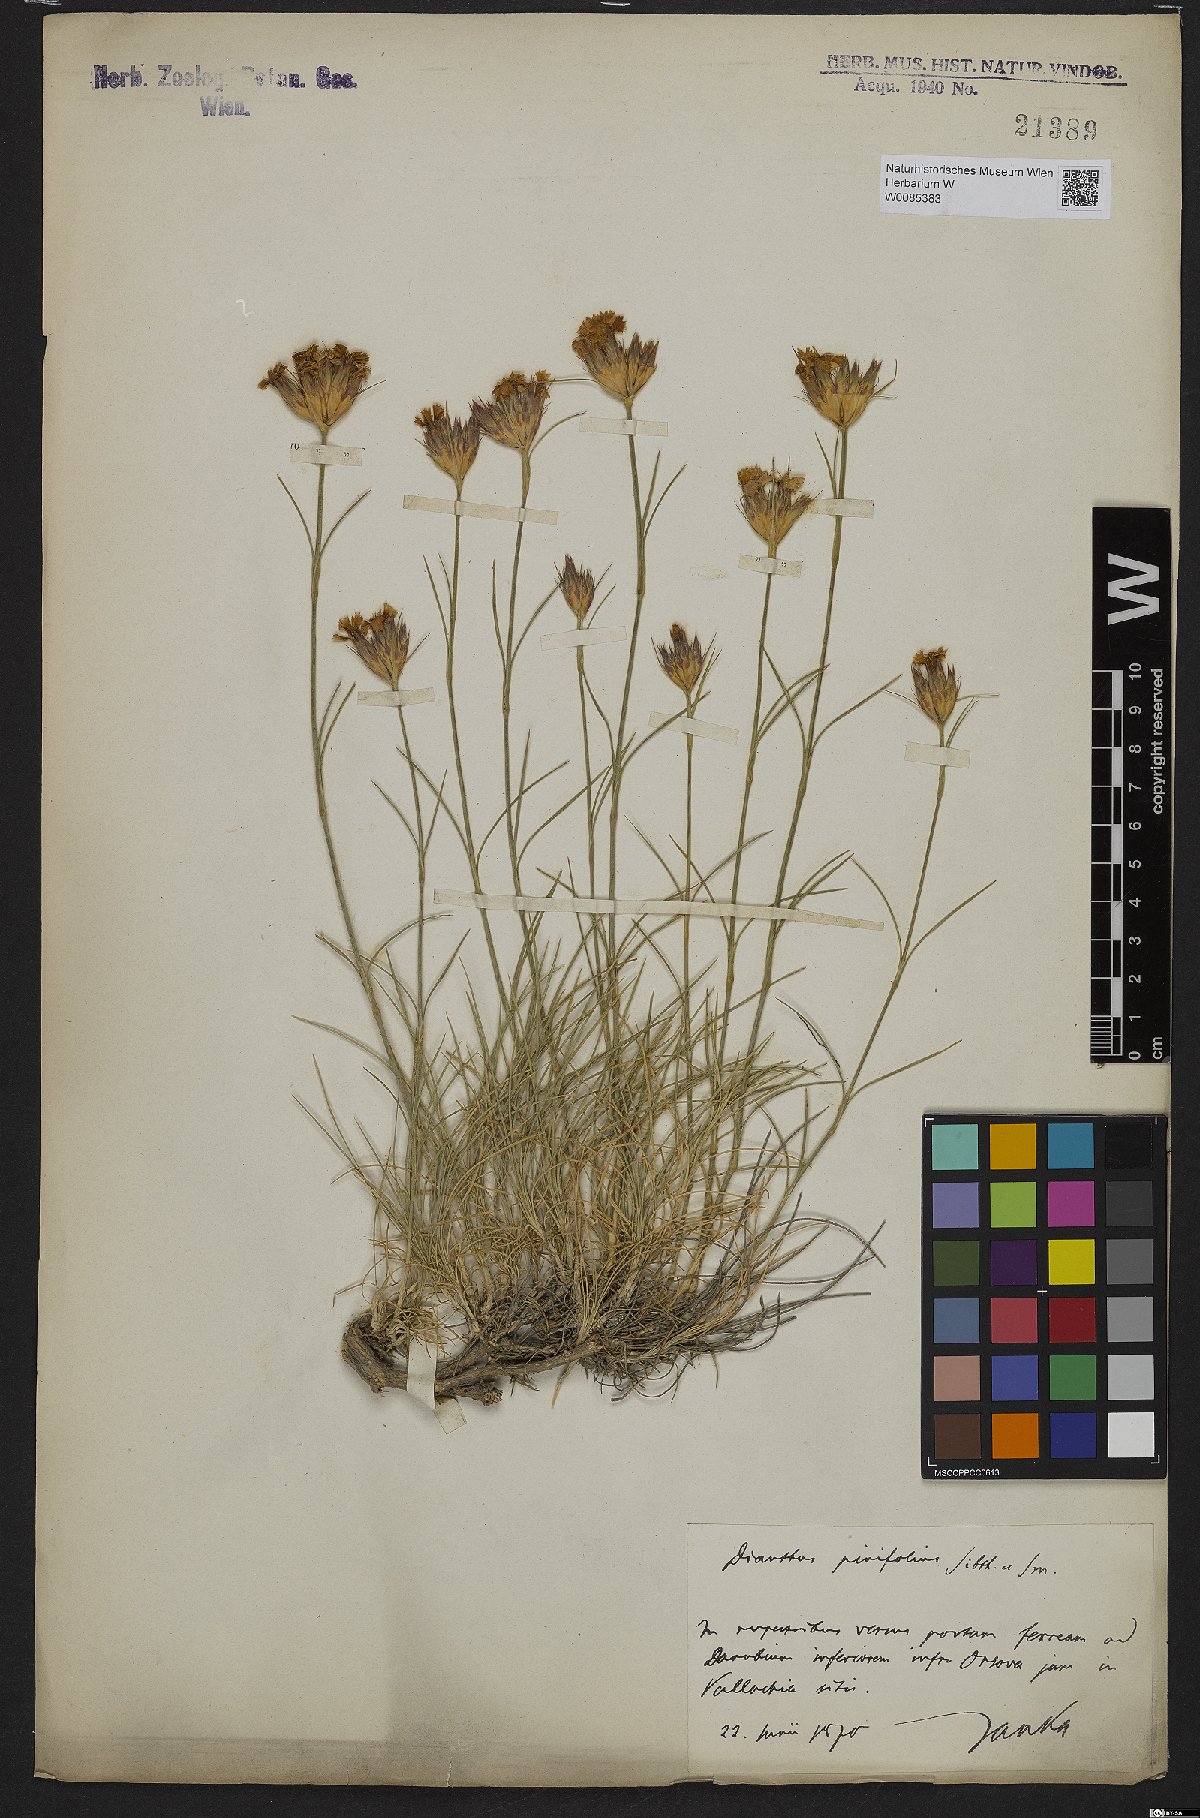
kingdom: Plantae
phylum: Tracheophyta
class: Magnoliopsida
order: Caryophyllales
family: Caryophyllaceae
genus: Dianthus
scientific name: Dianthus pinifolius
